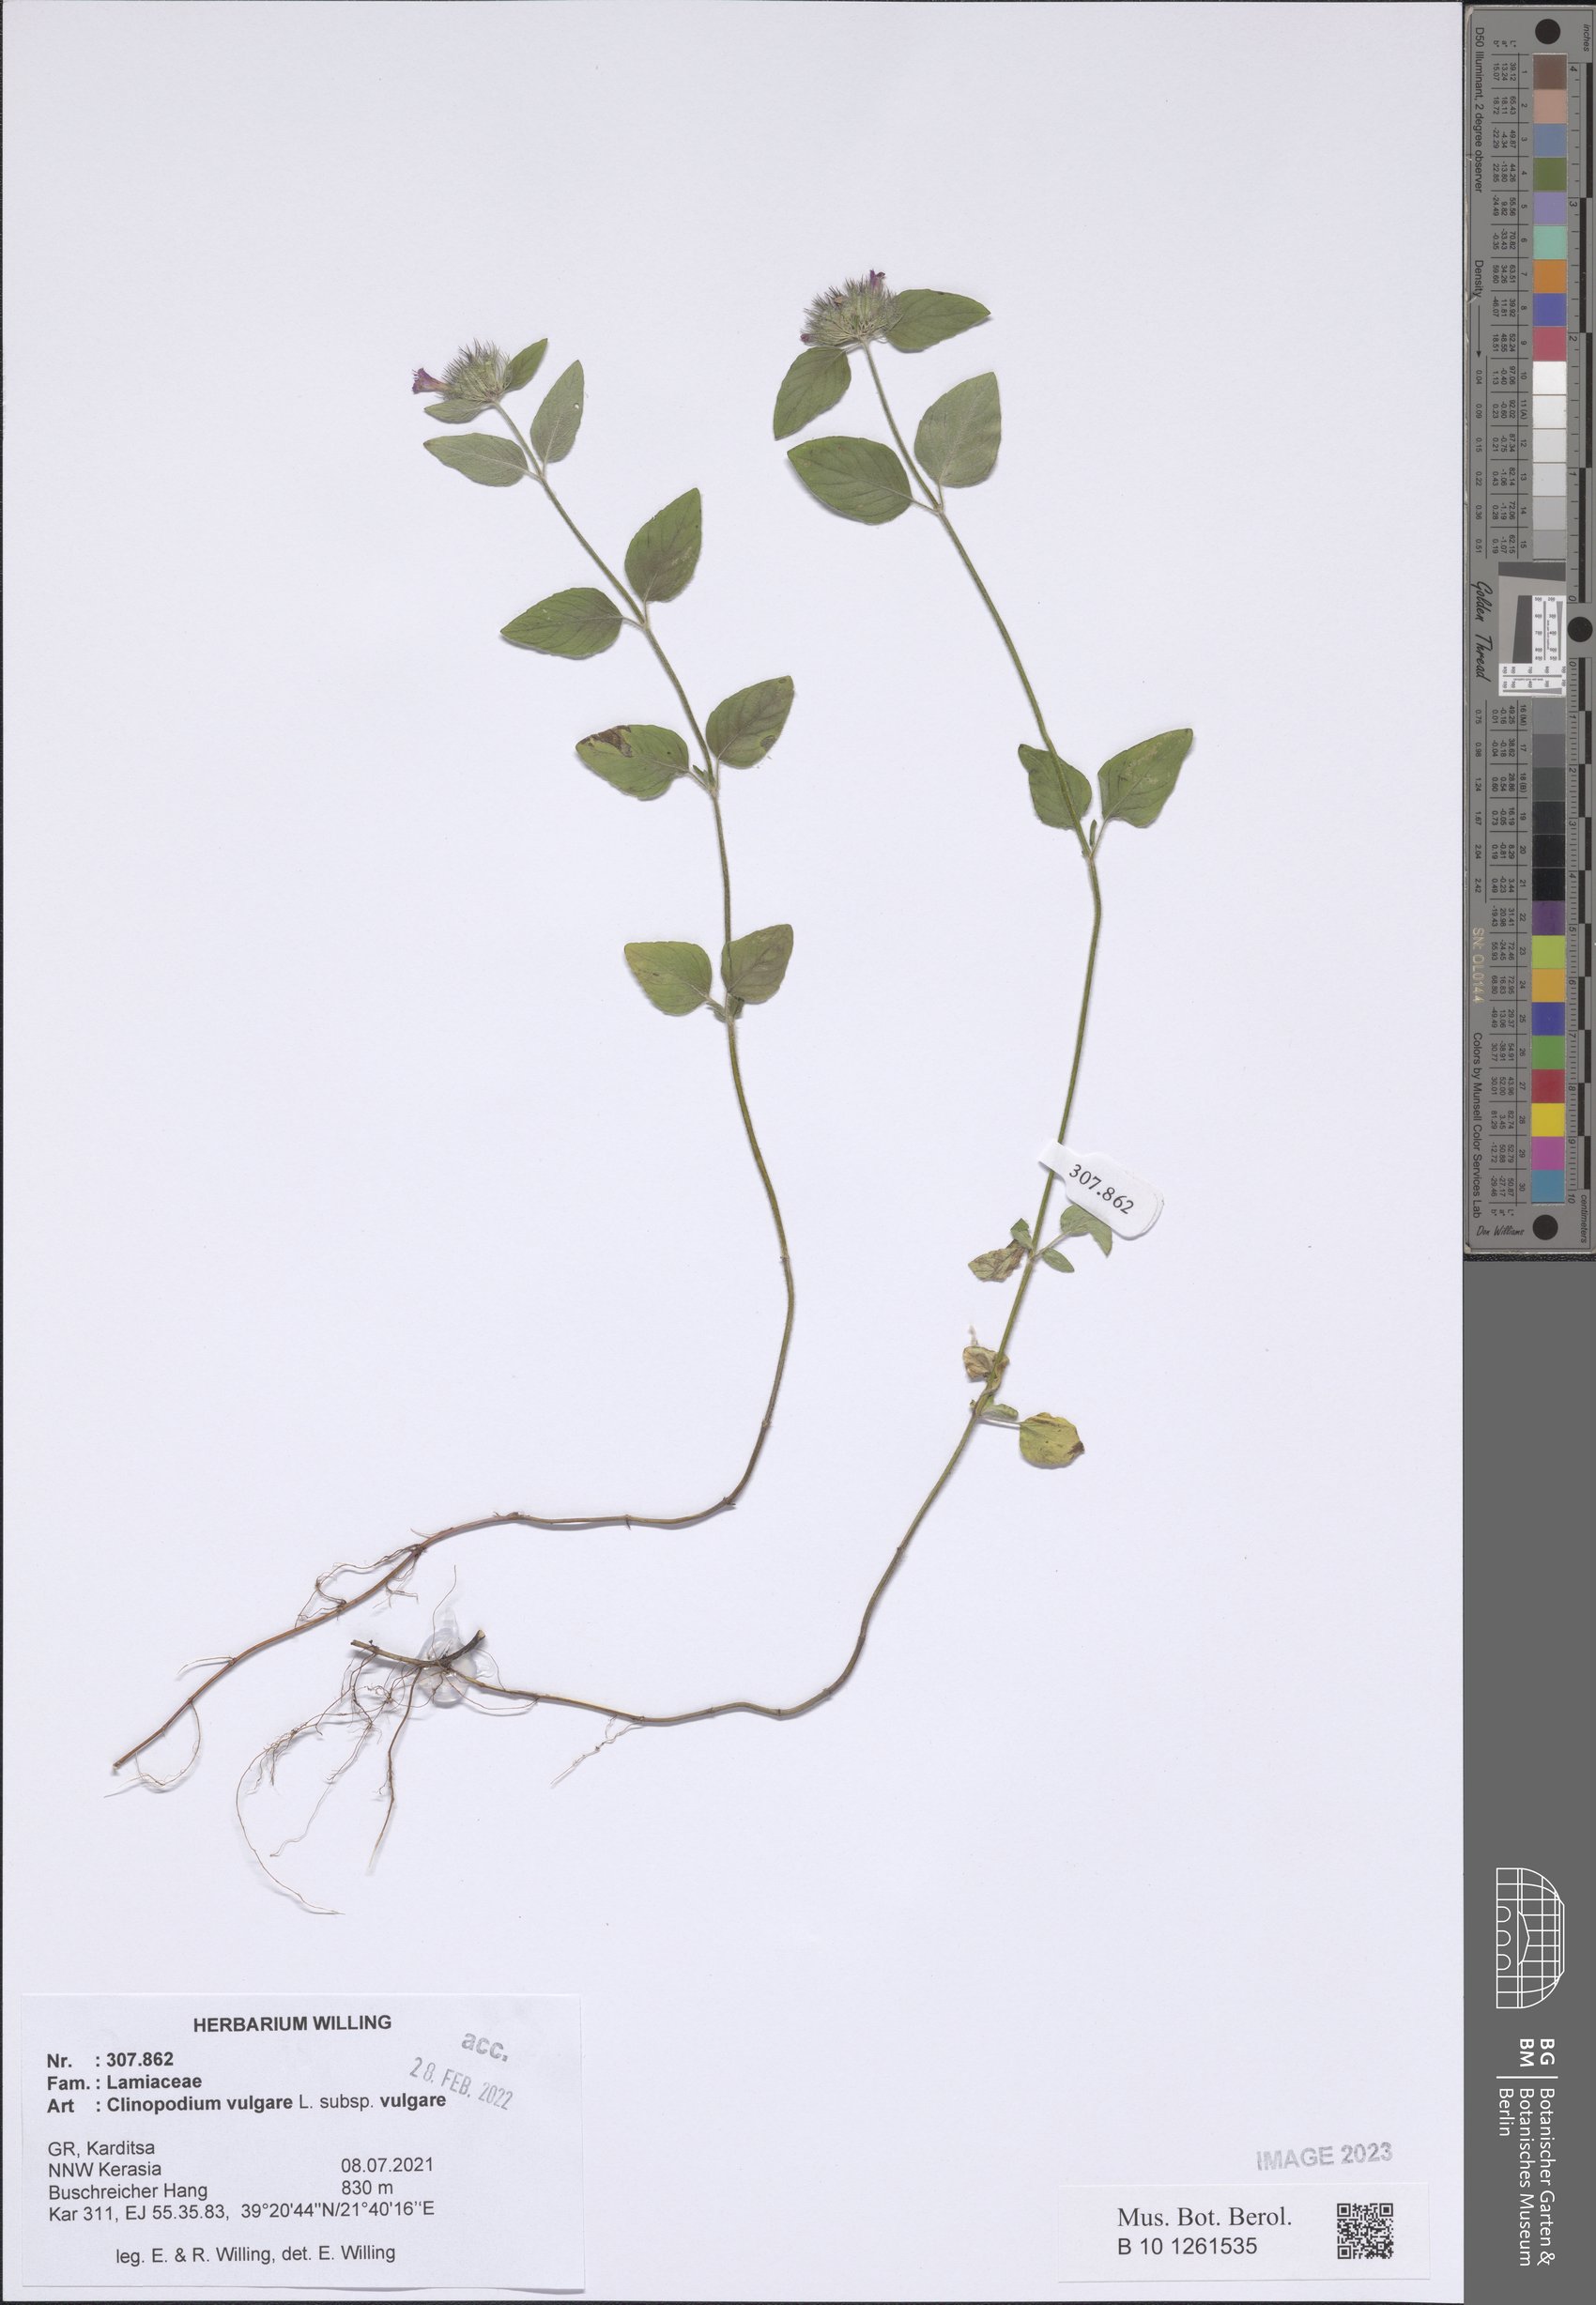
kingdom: Plantae
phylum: Tracheophyta
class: Magnoliopsida
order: Lamiales
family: Lamiaceae
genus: Clinopodium
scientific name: Clinopodium vulgare
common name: Wild basil
